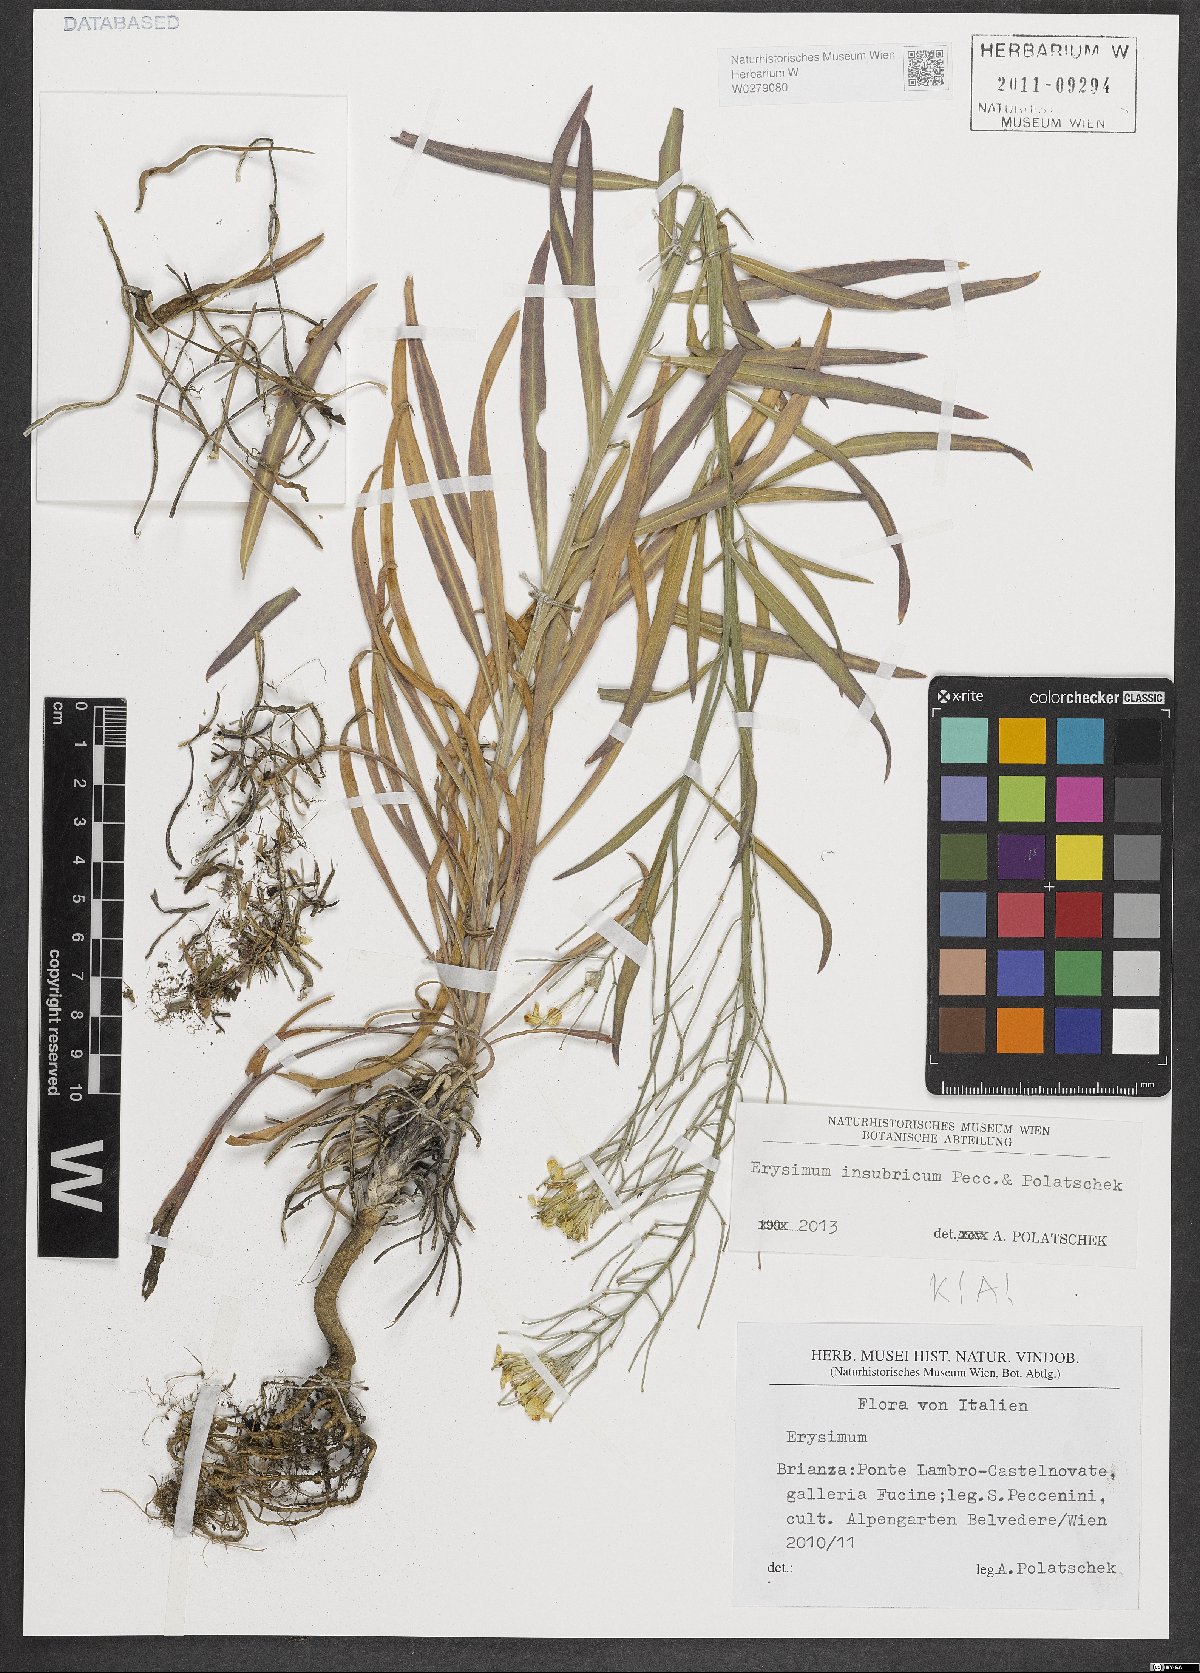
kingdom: Plantae
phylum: Tracheophyta
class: Magnoliopsida
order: Brassicales
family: Brassicaceae
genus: Erysimum
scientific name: Erysimum insubricum
